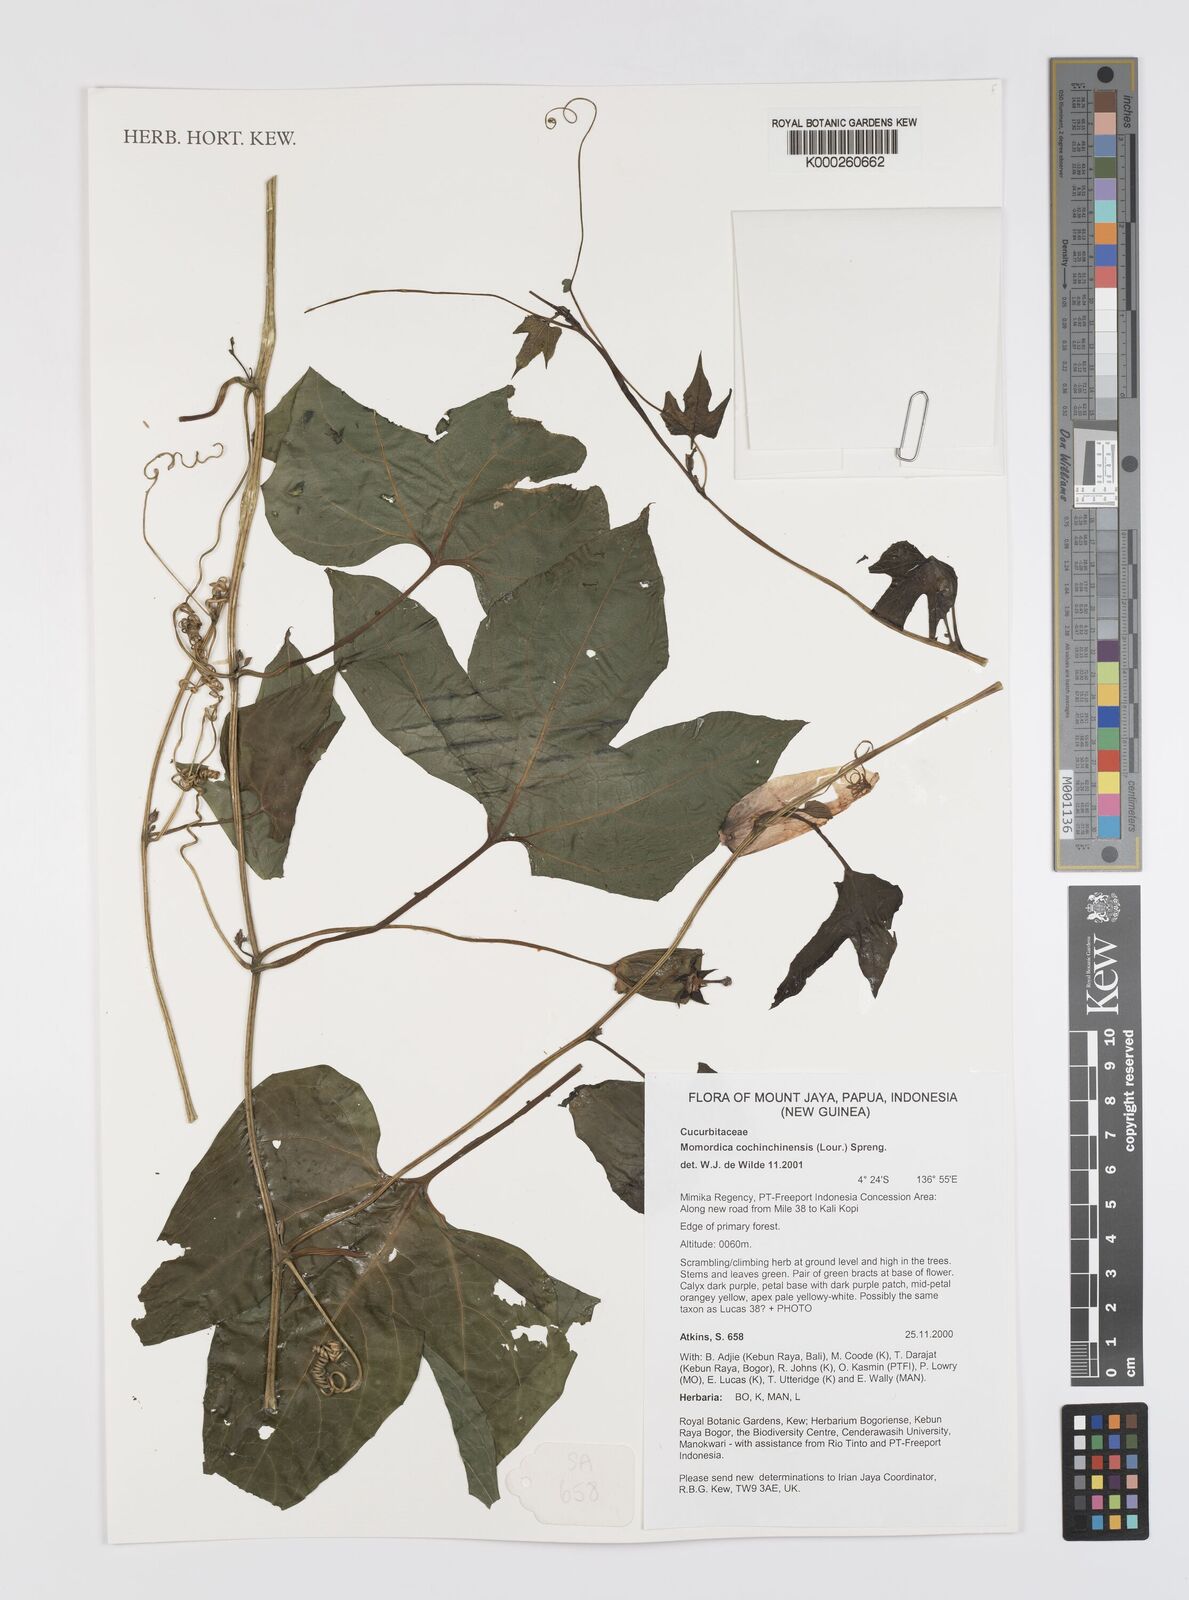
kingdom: Plantae
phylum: Tracheophyta
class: Magnoliopsida
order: Cucurbitales
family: Cucurbitaceae
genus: Momordica
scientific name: Momordica cochinchinensis
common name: Chinese bitter-cucumber
